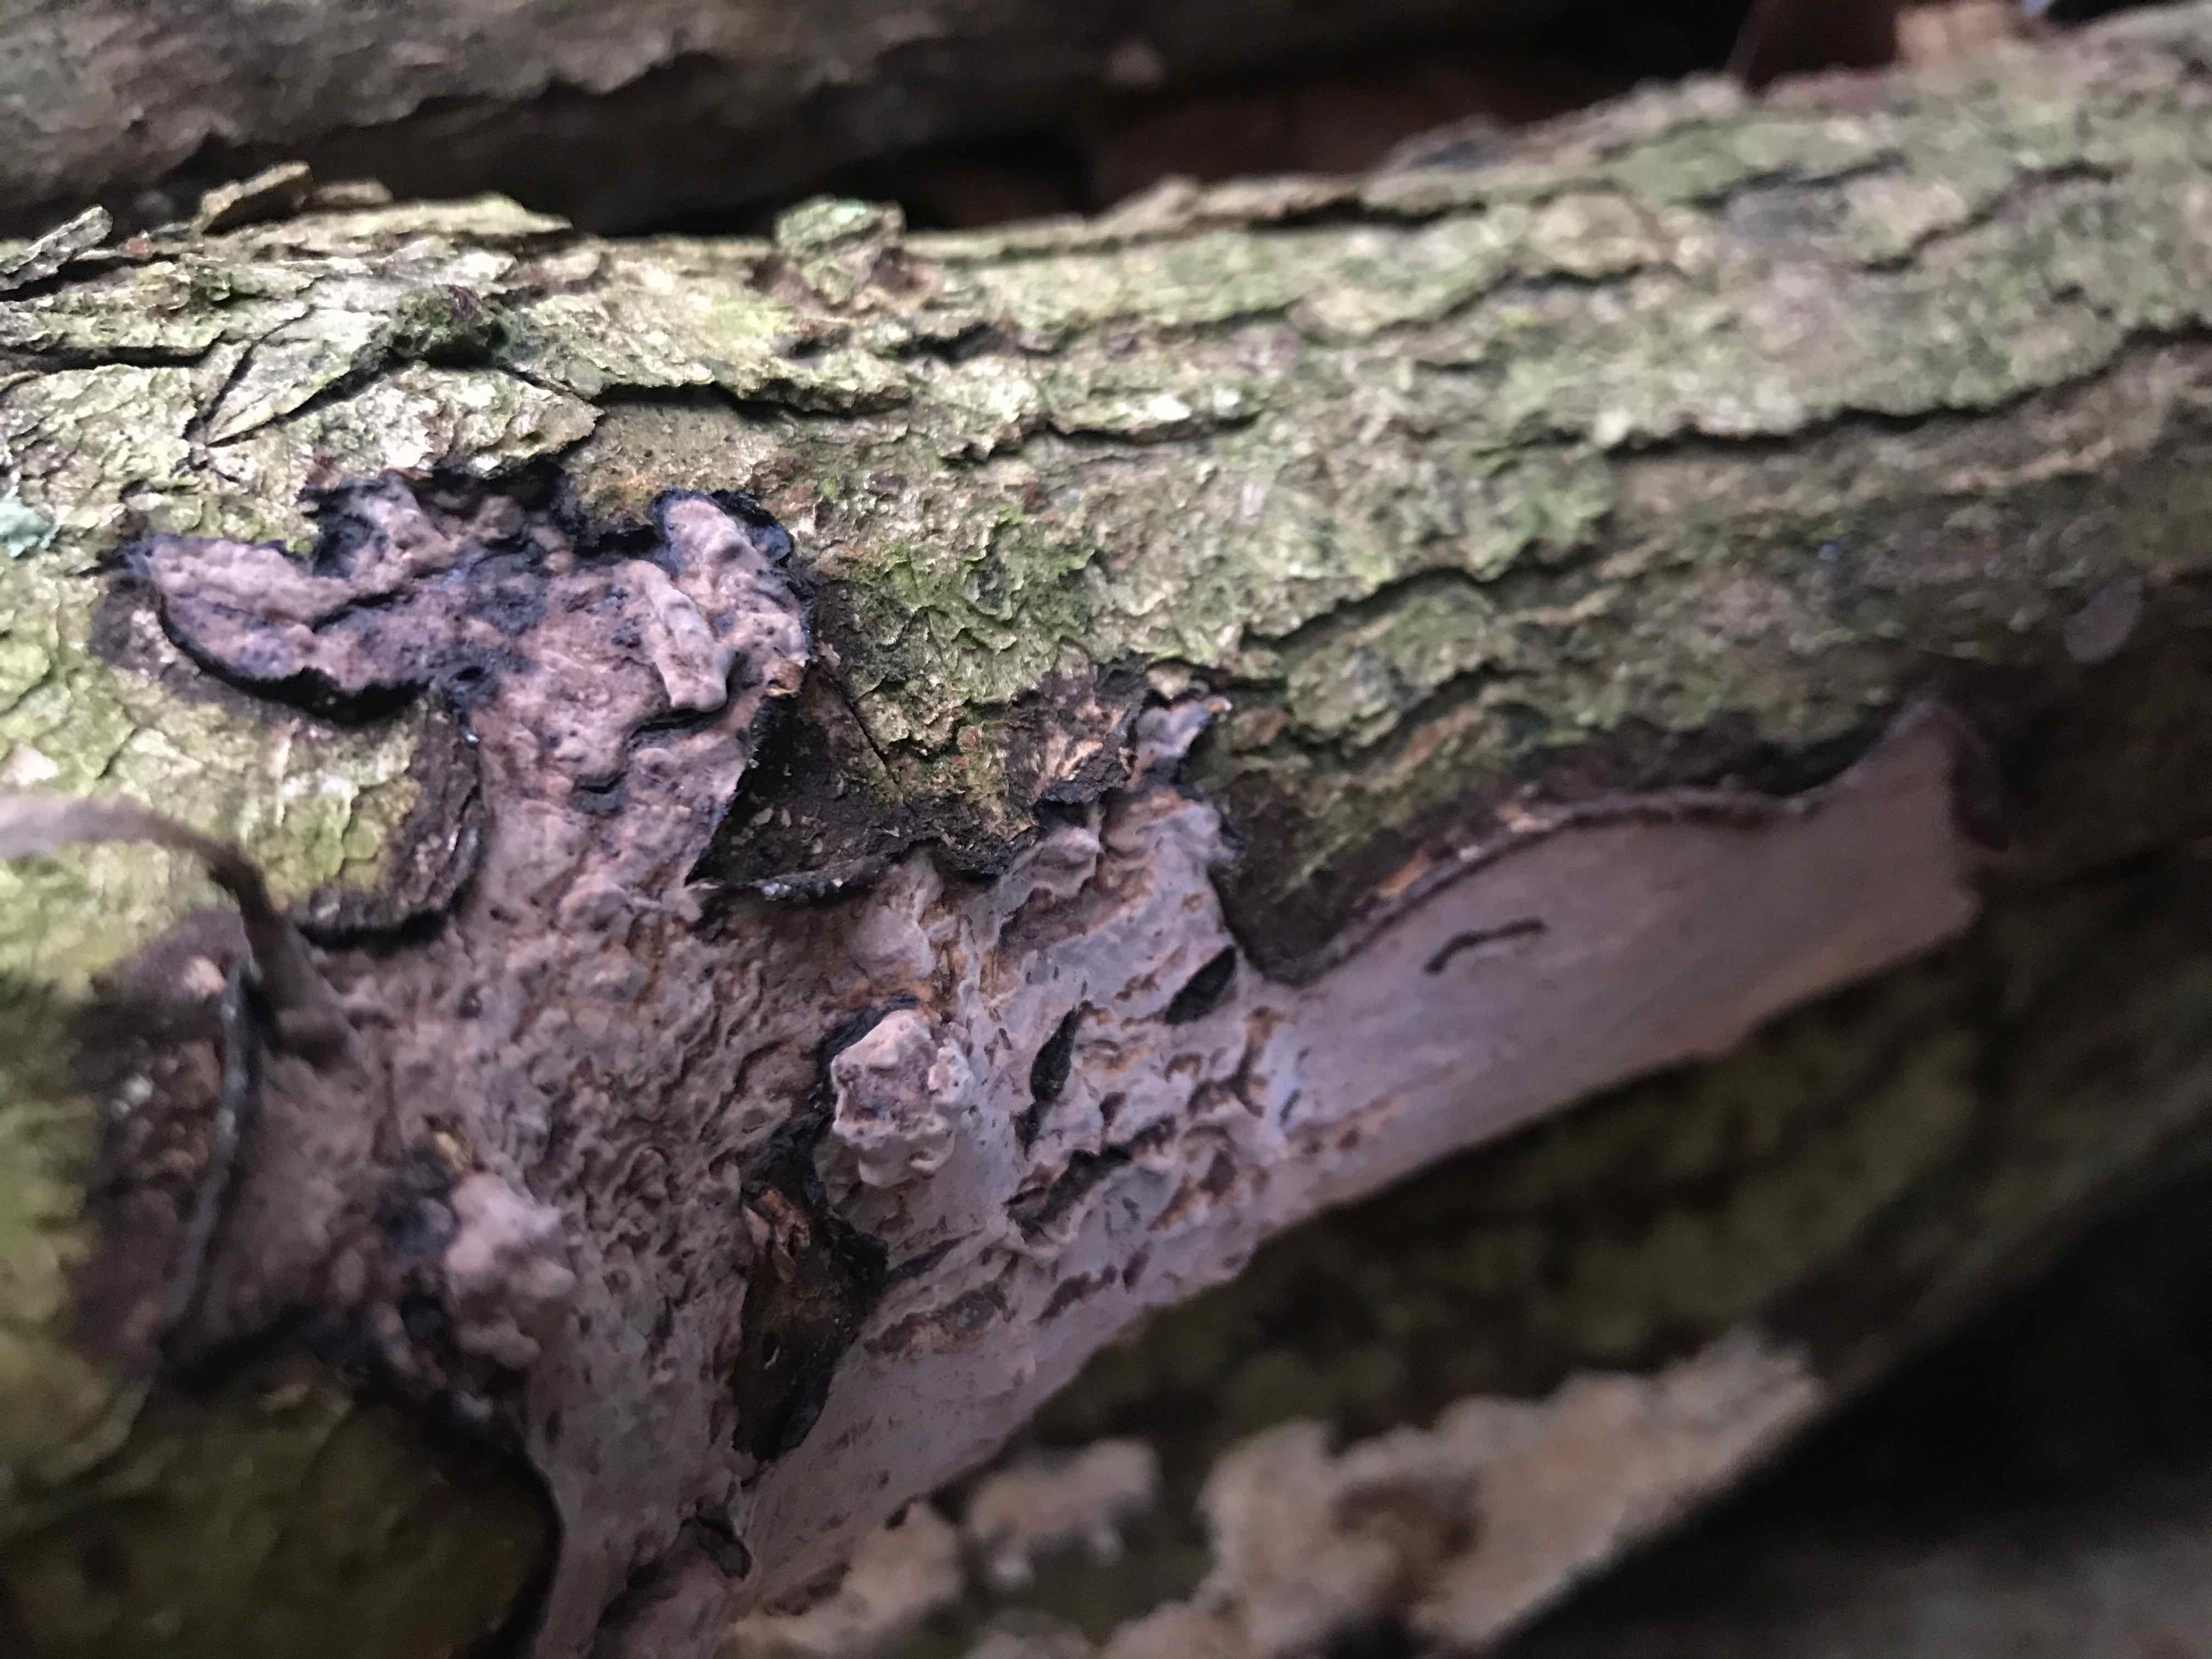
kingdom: Fungi
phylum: Basidiomycota
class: Agaricomycetes
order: Russulales
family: Peniophoraceae
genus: Peniophora
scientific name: Peniophora quercina
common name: ege-voksskind
